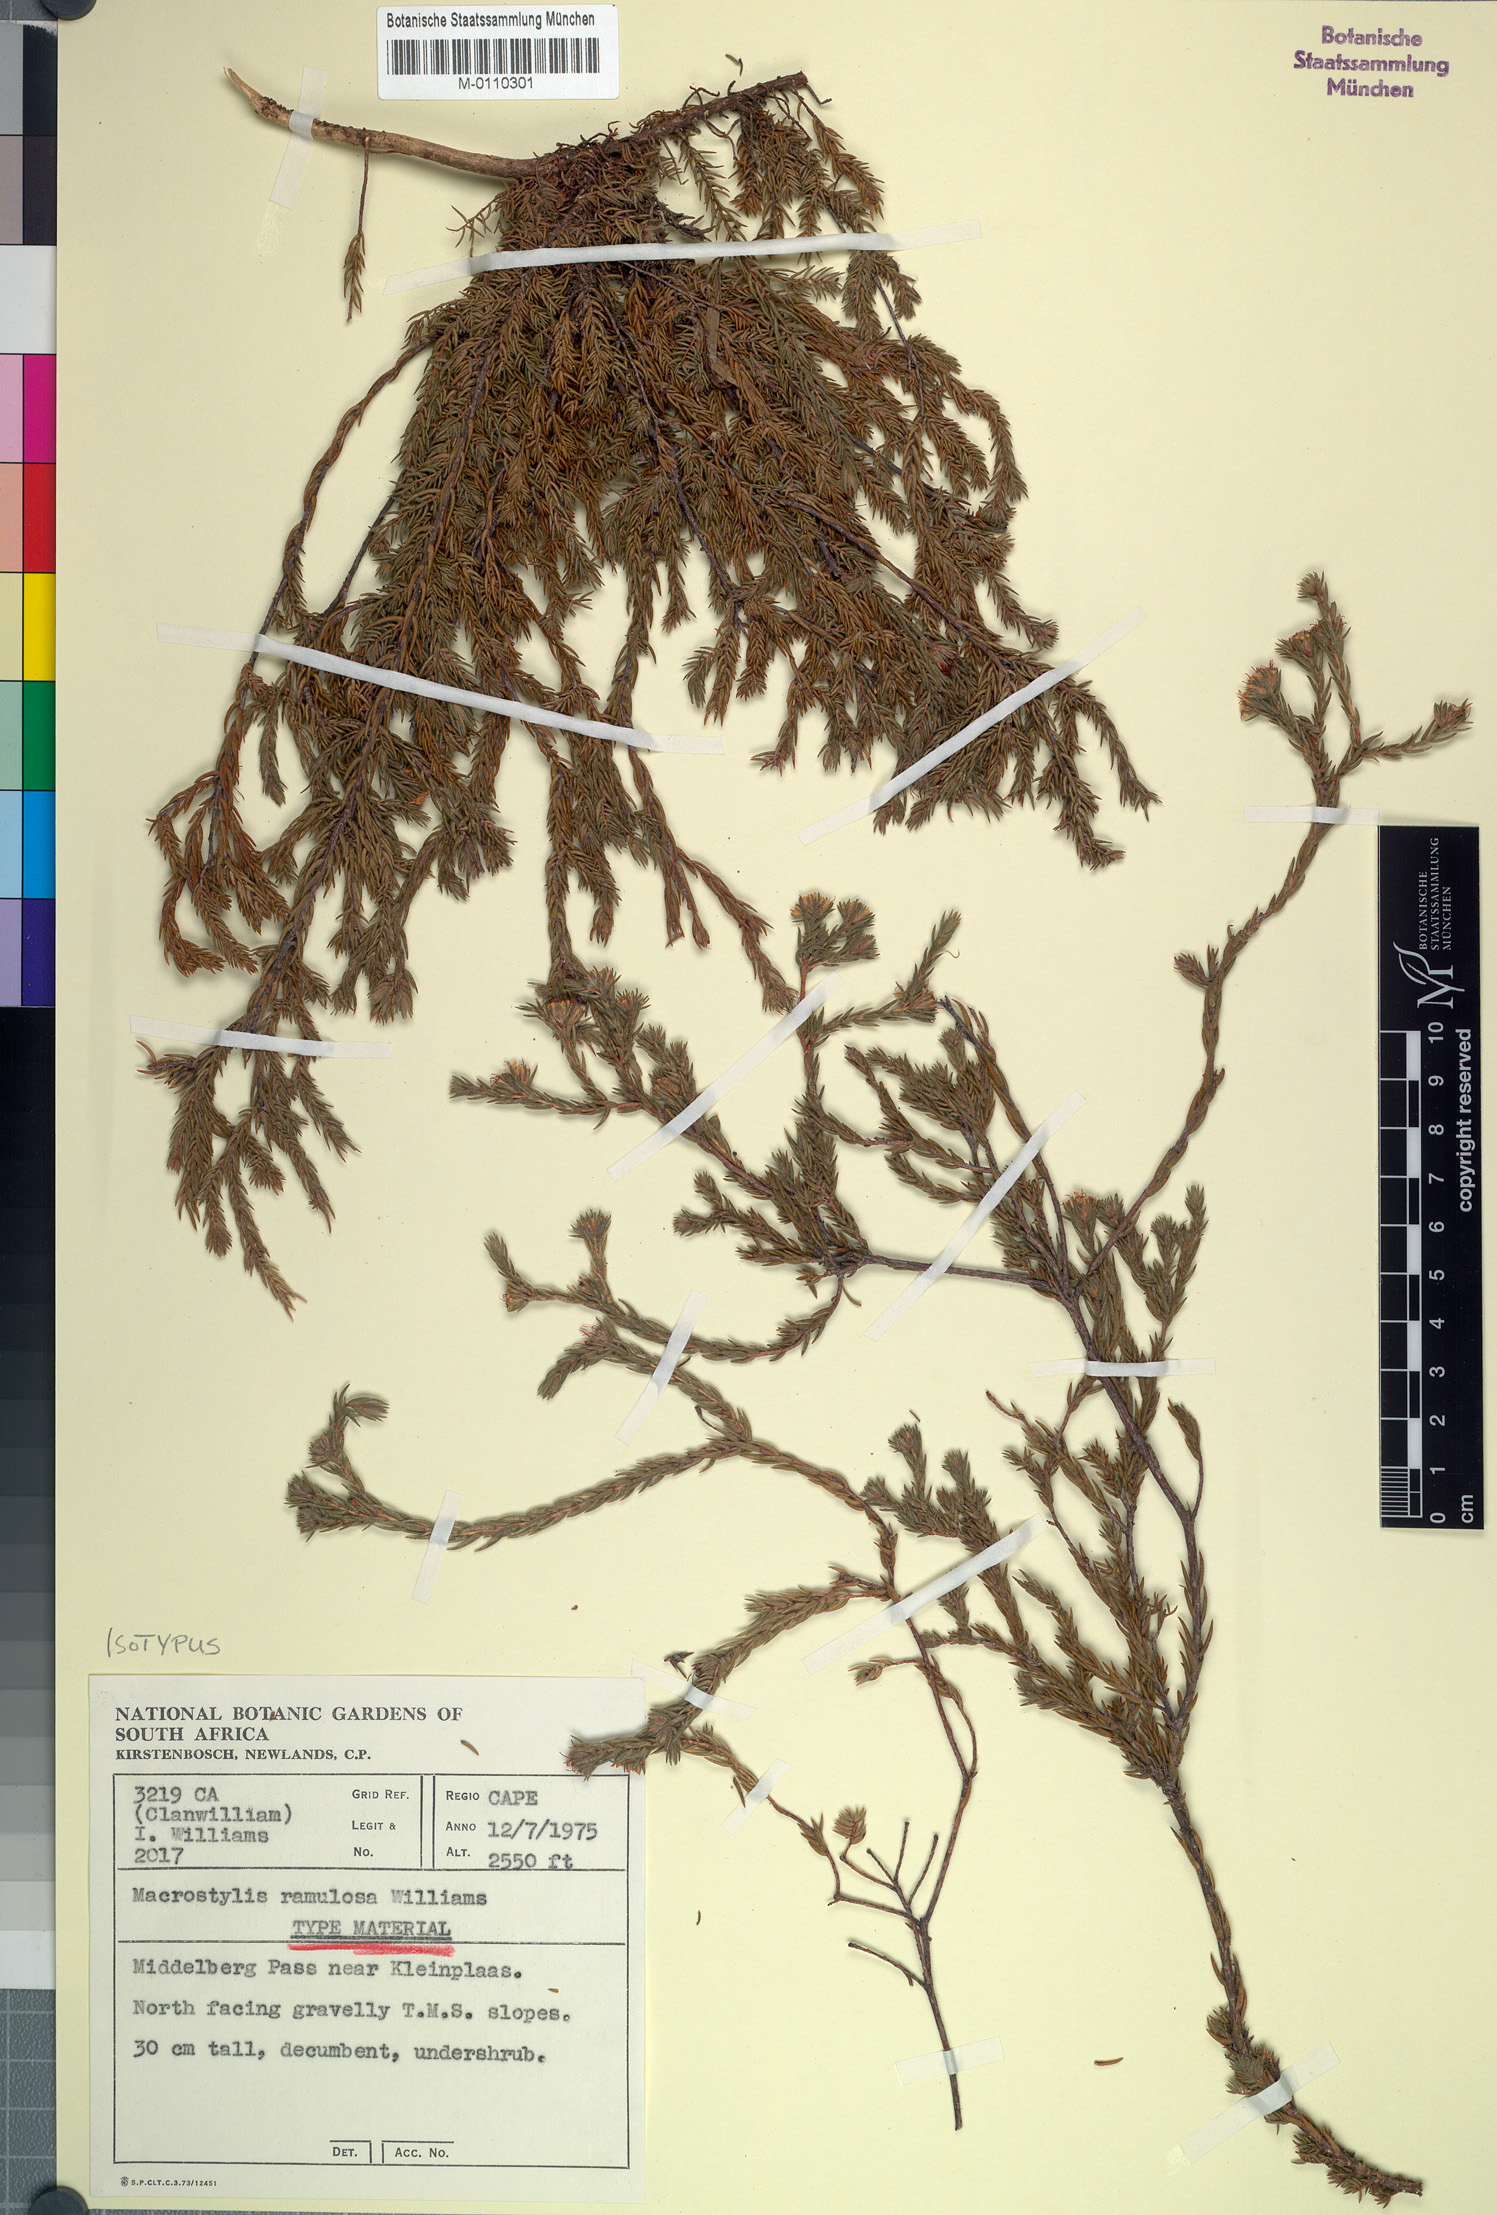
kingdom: Plantae
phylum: Tracheophyta
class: Magnoliopsida
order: Sapindales
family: Rutaceae
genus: Macrostylis
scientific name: Macrostylis ramulosa
